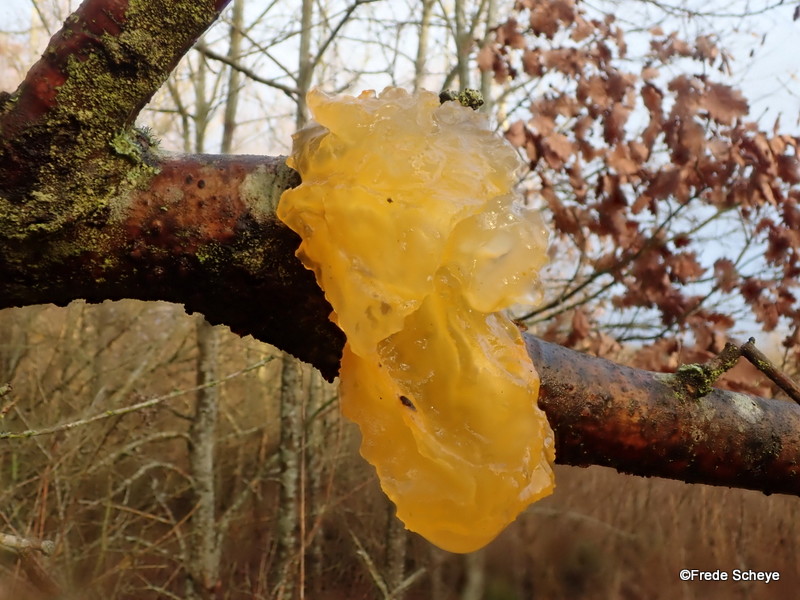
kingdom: Fungi
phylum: Basidiomycota
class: Tremellomycetes
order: Tremellales
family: Tremellaceae
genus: Tremella
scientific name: Tremella mesenterica
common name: gul bævresvamp
